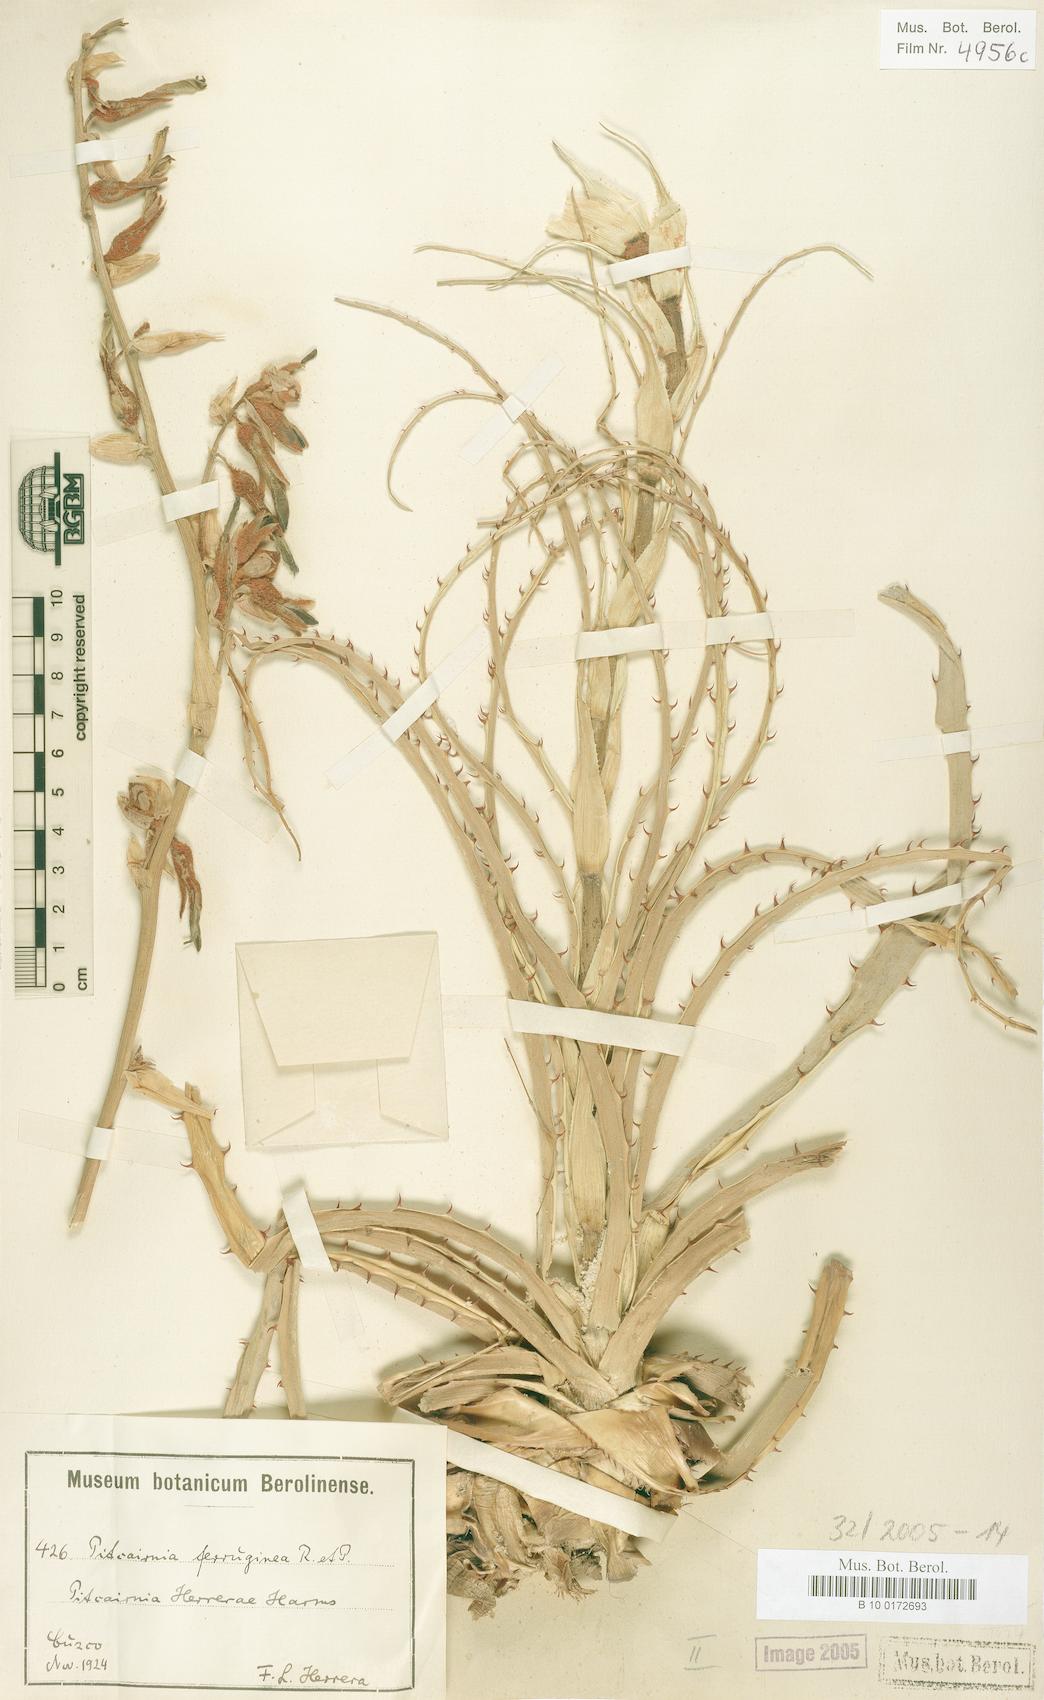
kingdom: Plantae
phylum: Tracheophyta
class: Liliopsida
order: Poales
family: Bromeliaceae
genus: Puya
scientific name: Puya ferruginea
